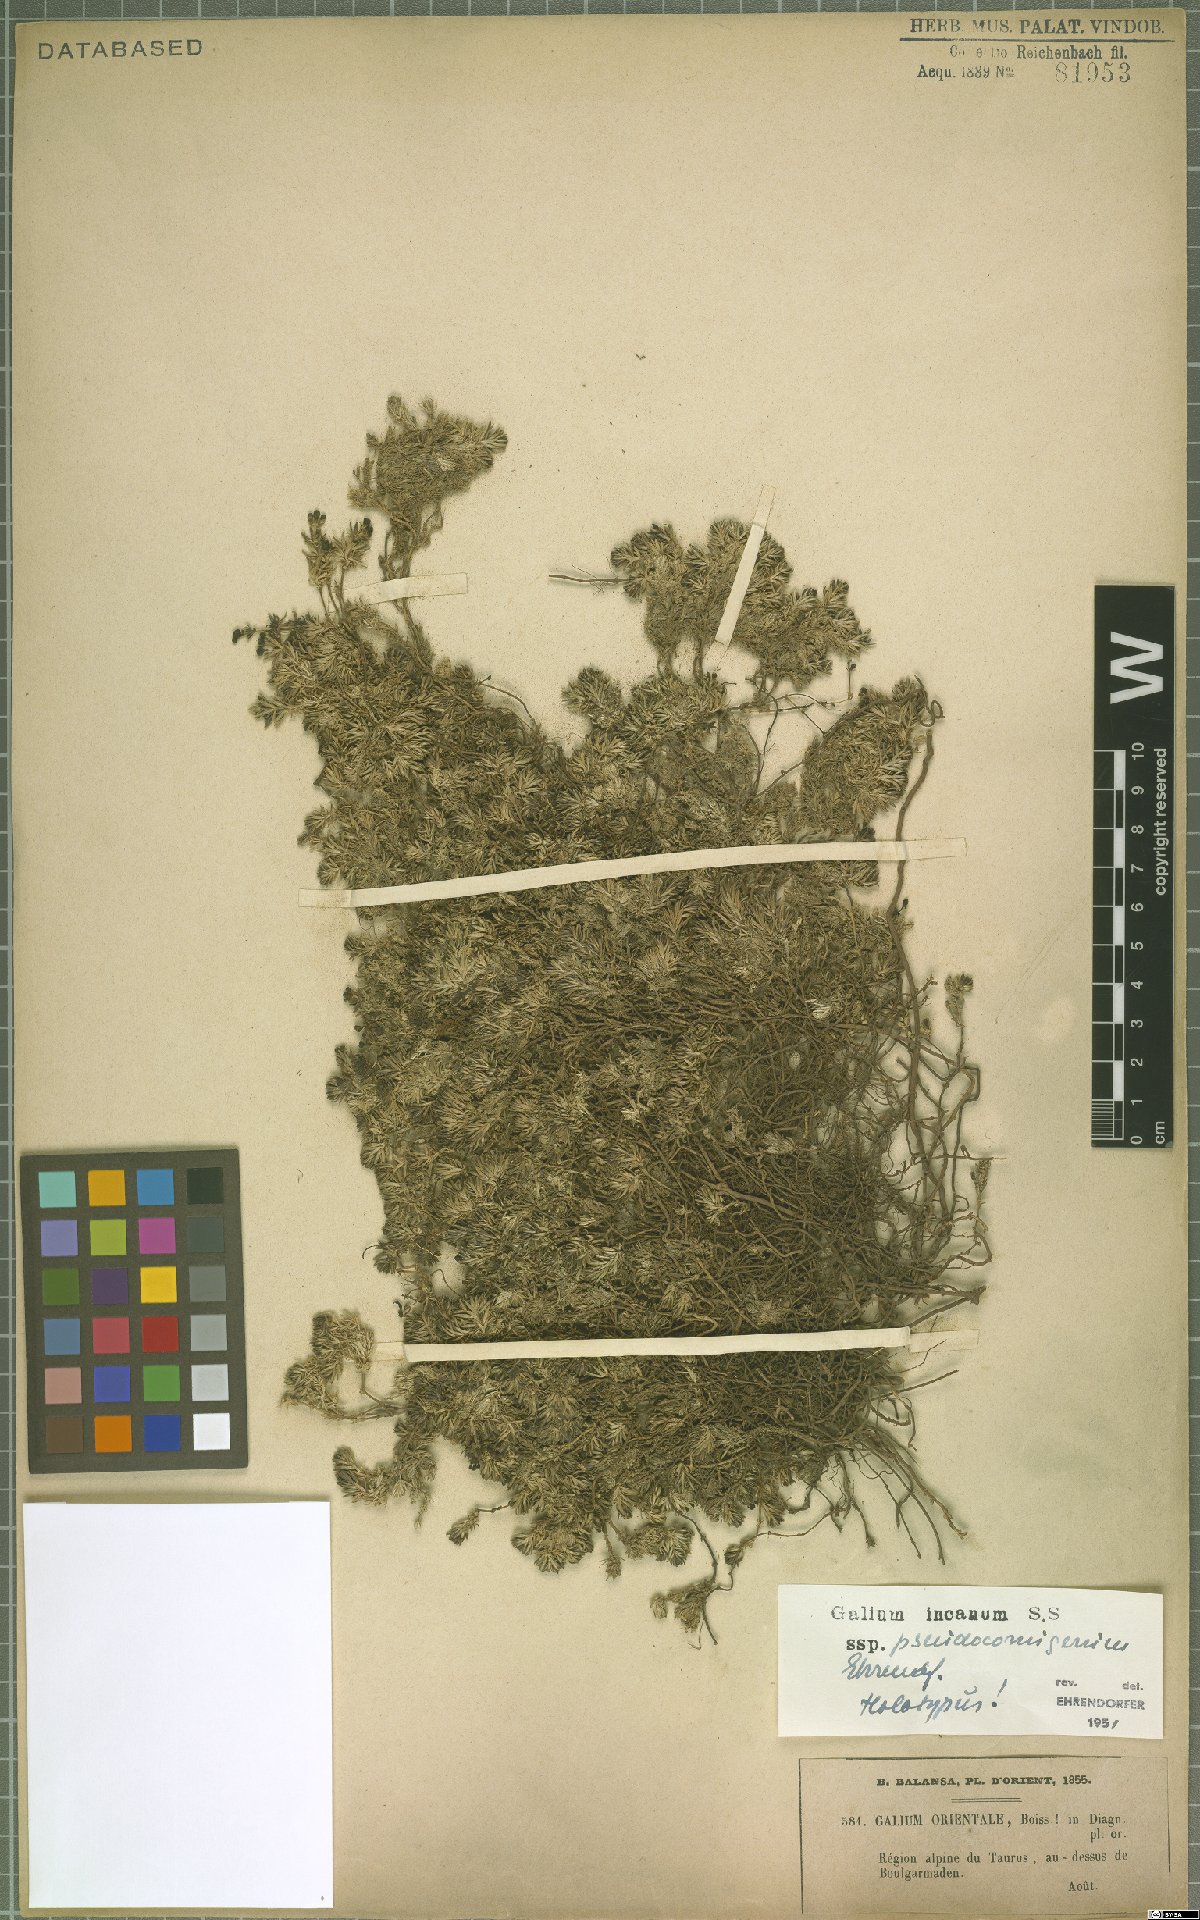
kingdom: Plantae
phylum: Tracheophyta
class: Magnoliopsida
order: Gentianales
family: Rubiaceae
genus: Galium
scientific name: Galium incanum
